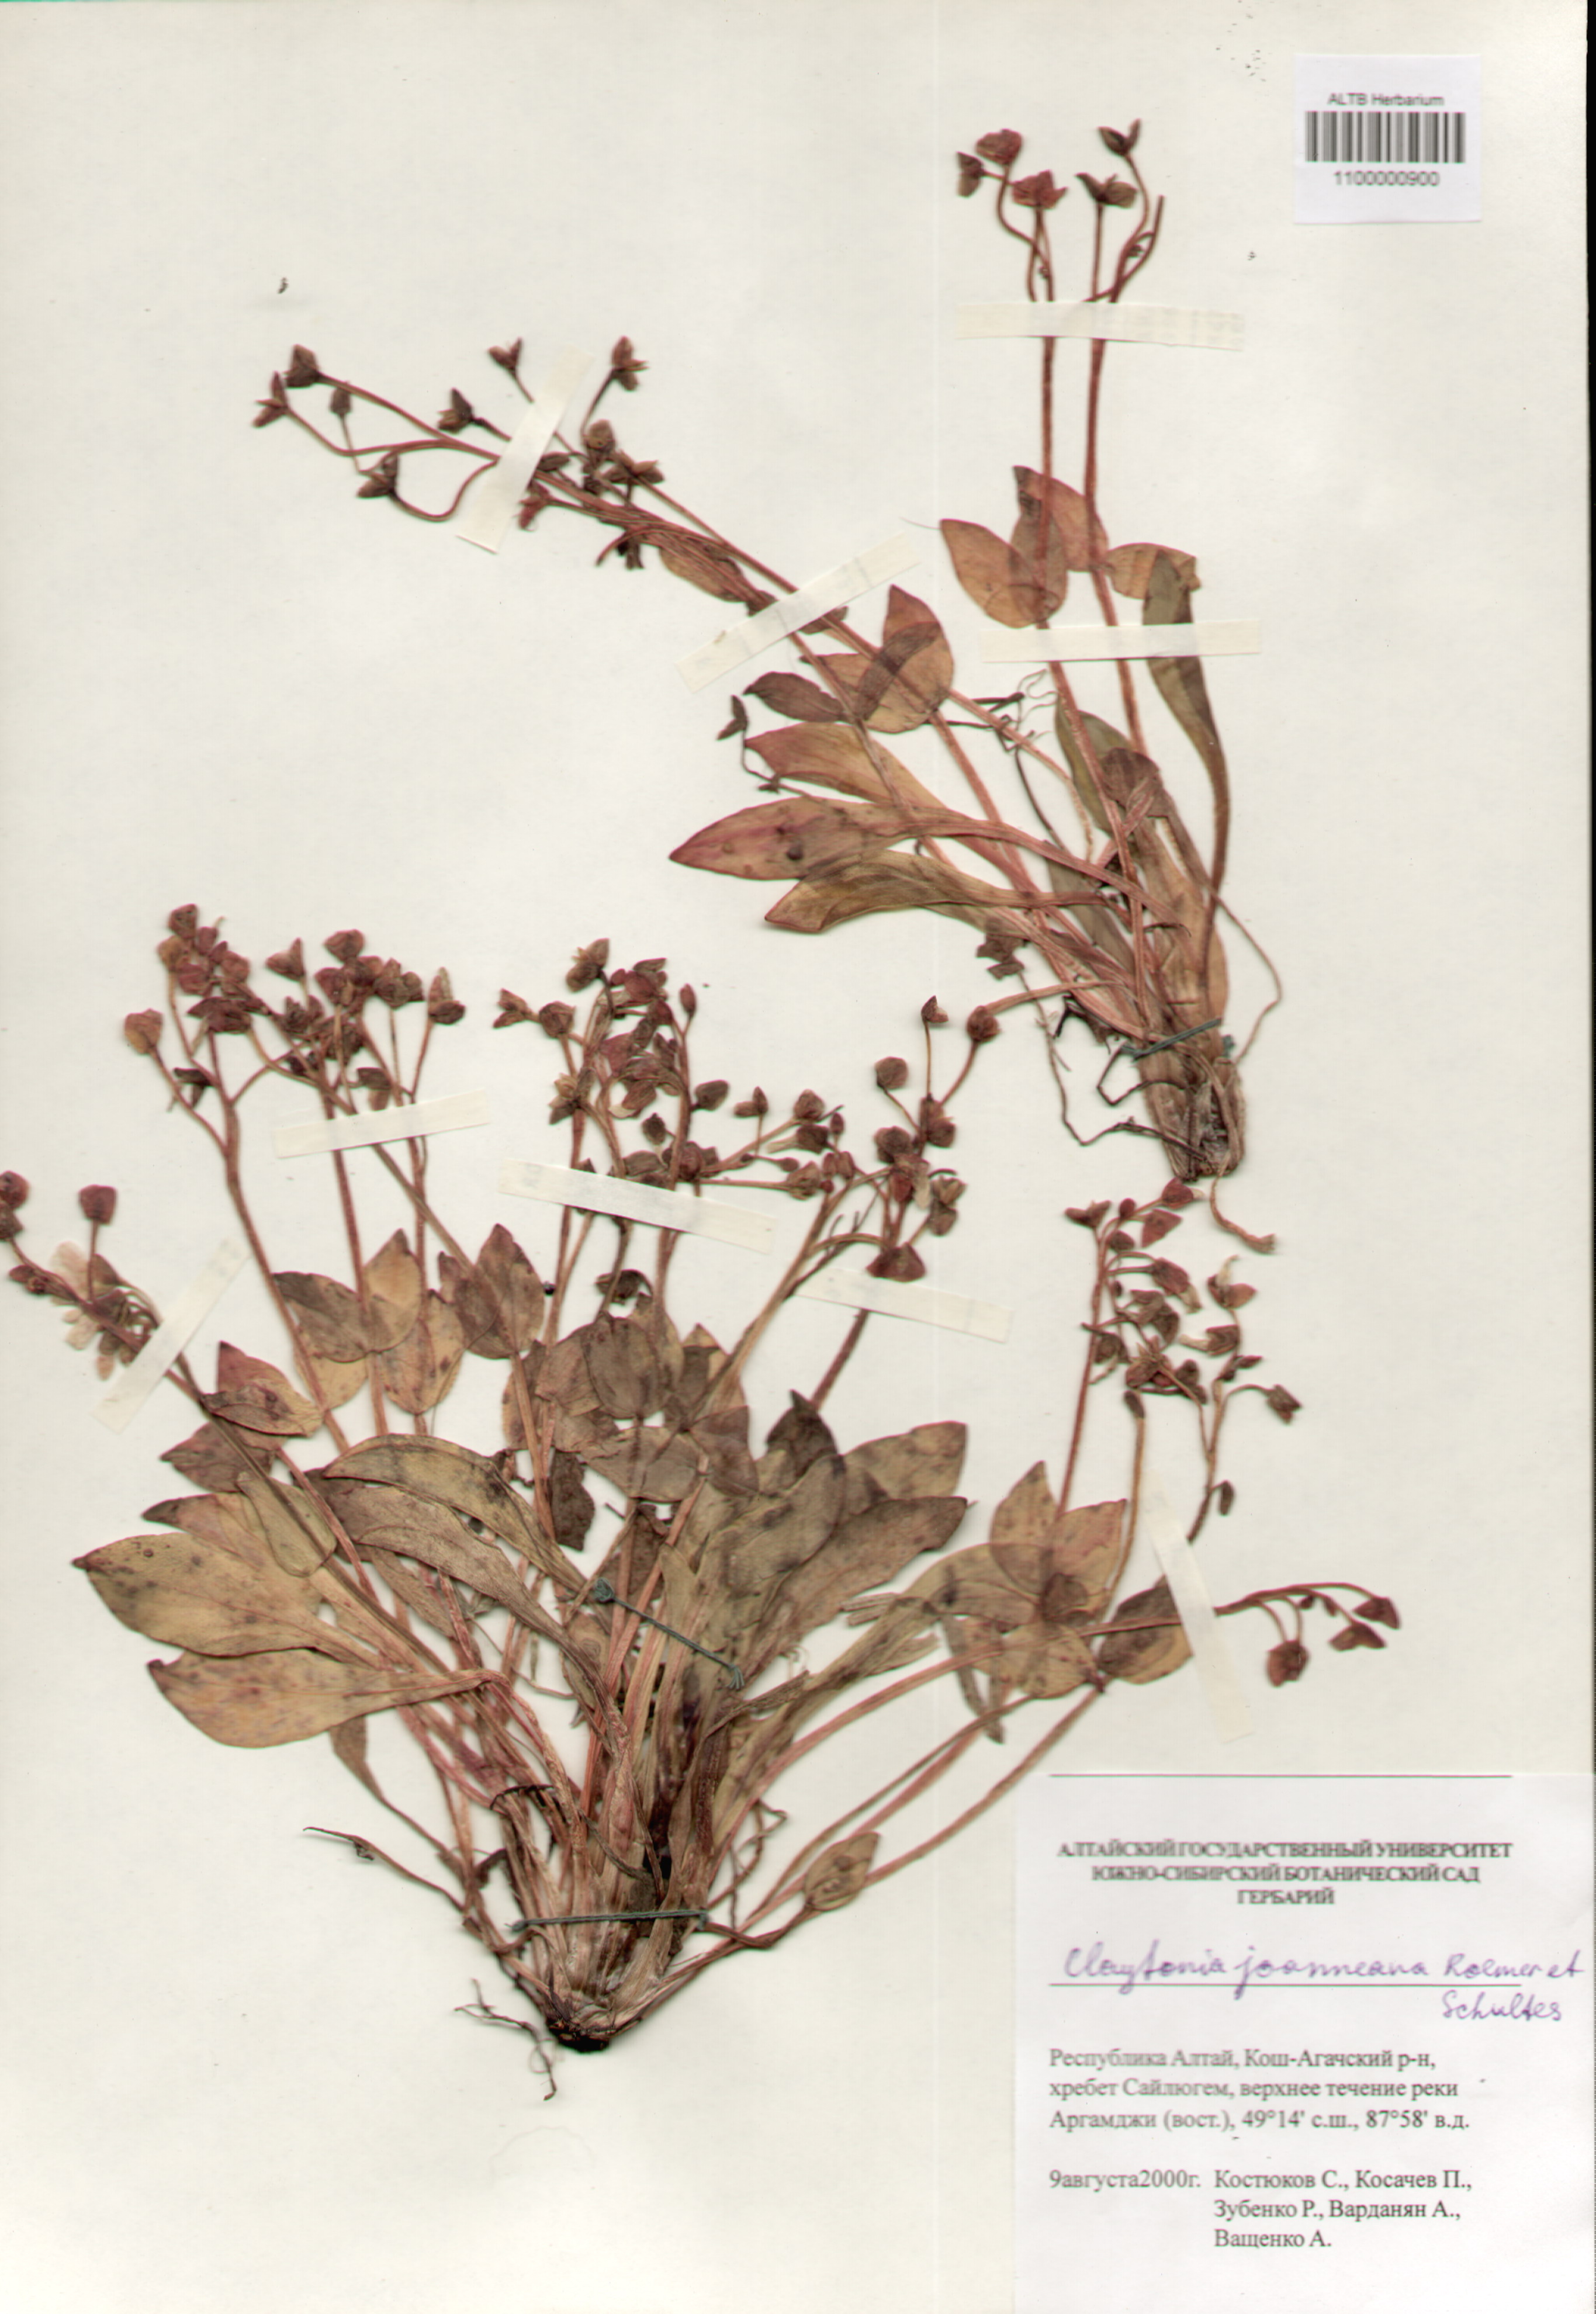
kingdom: Plantae
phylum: Tracheophyta
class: Magnoliopsida
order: Caryophyllales
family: Montiaceae
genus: Claytonia
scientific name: Claytonia joanneana
